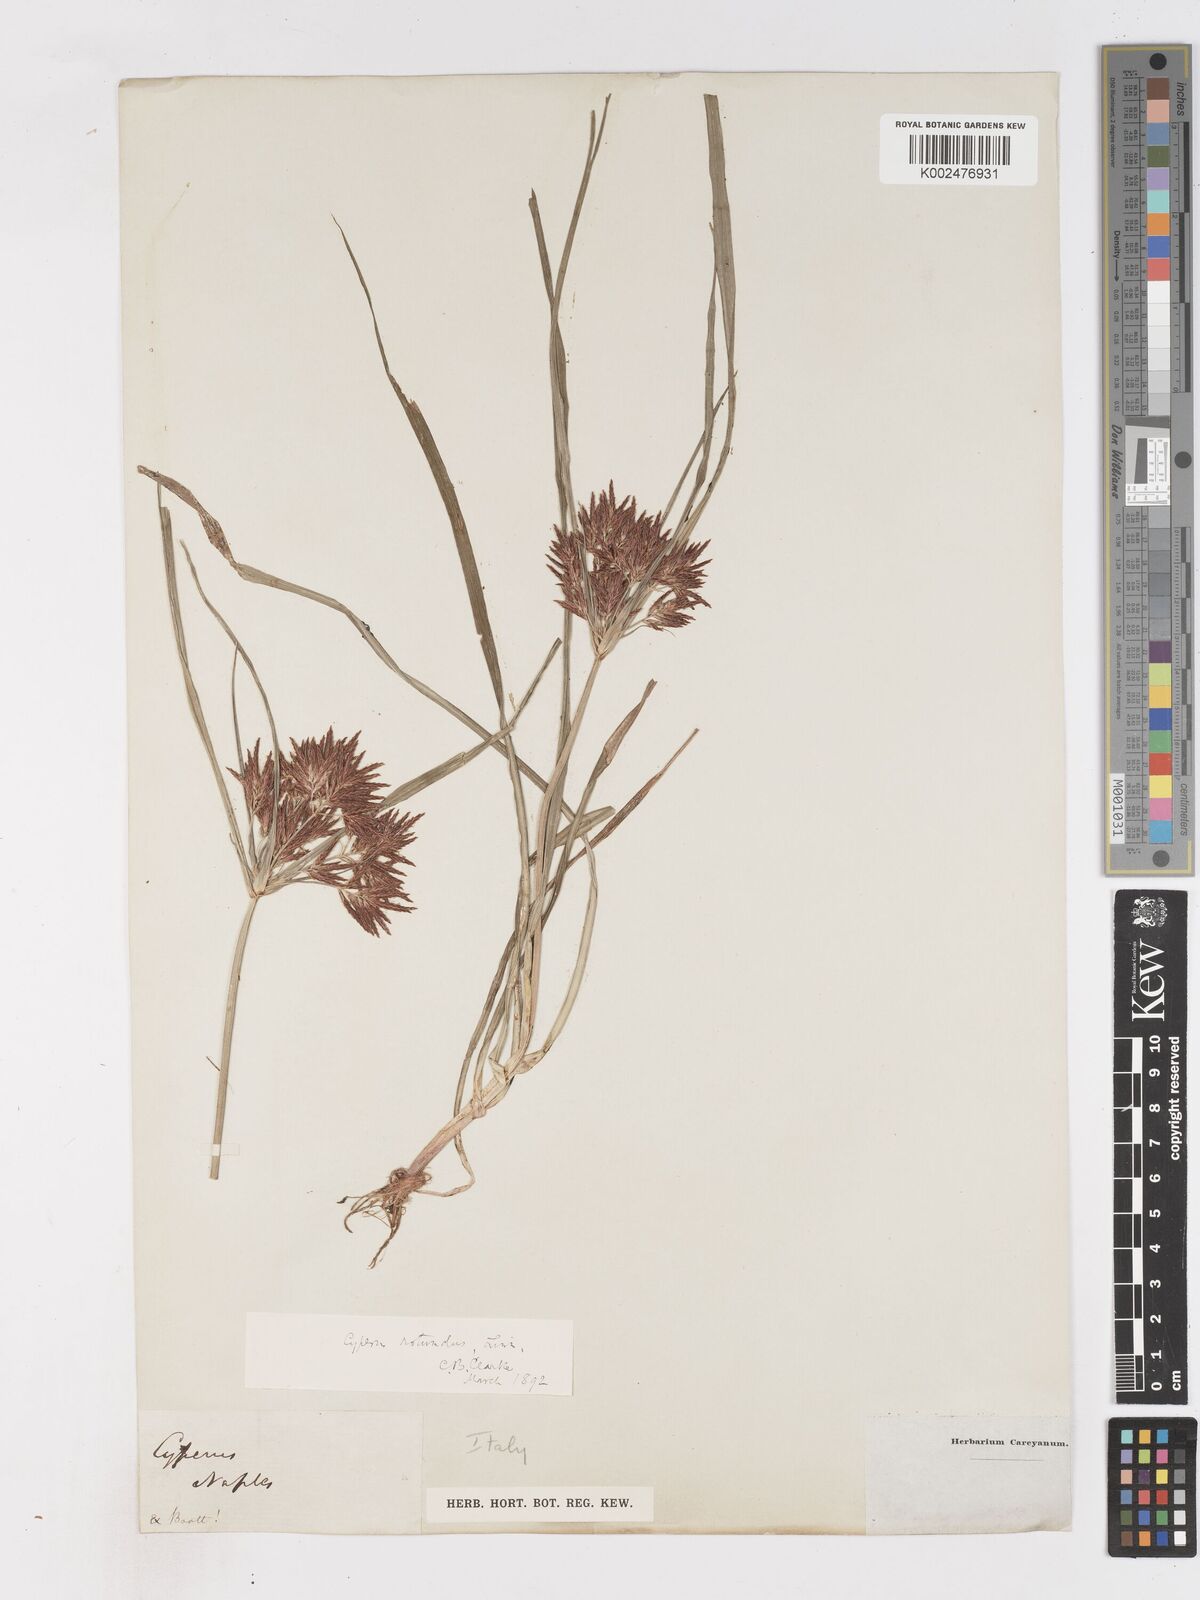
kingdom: Plantae
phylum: Tracheophyta
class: Liliopsida
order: Poales
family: Cyperaceae
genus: Cyperus
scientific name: Cyperus rotundus
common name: Nutgrass
